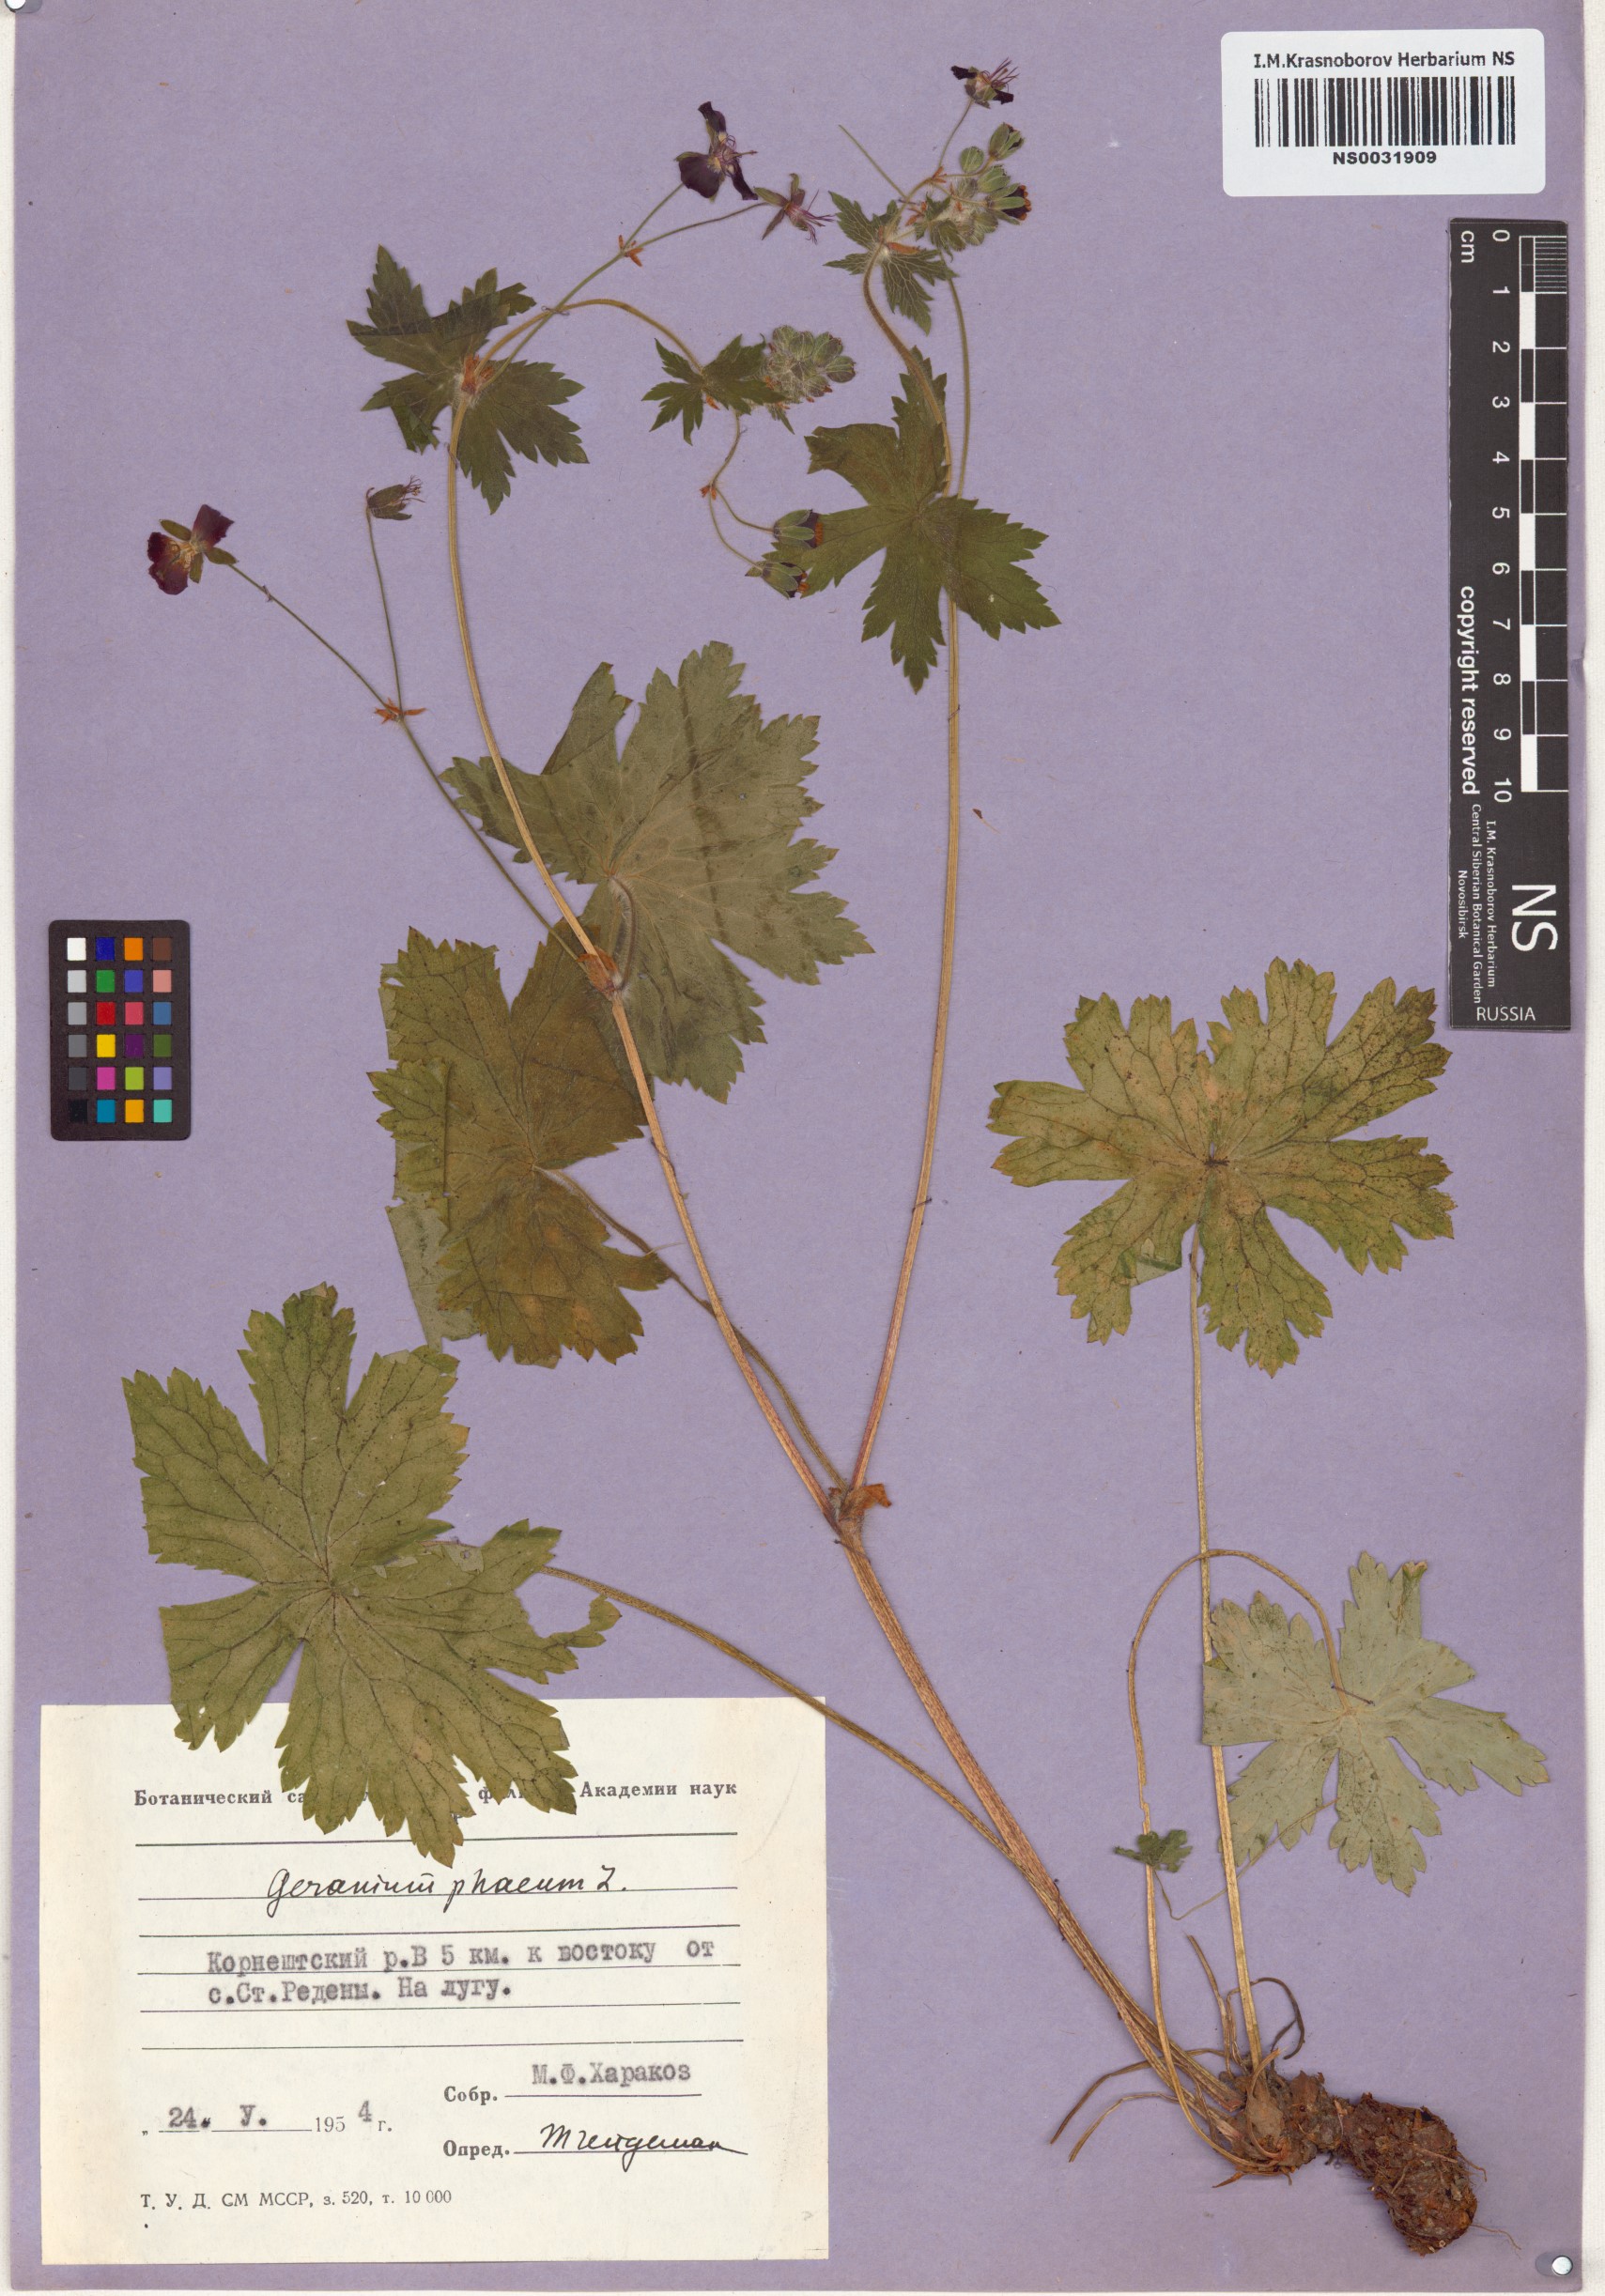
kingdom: Plantae
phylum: Tracheophyta
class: Magnoliopsida
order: Geraniales
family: Geraniaceae
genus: Geranium
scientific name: Geranium phaeum
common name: Dusky crane's-bill
